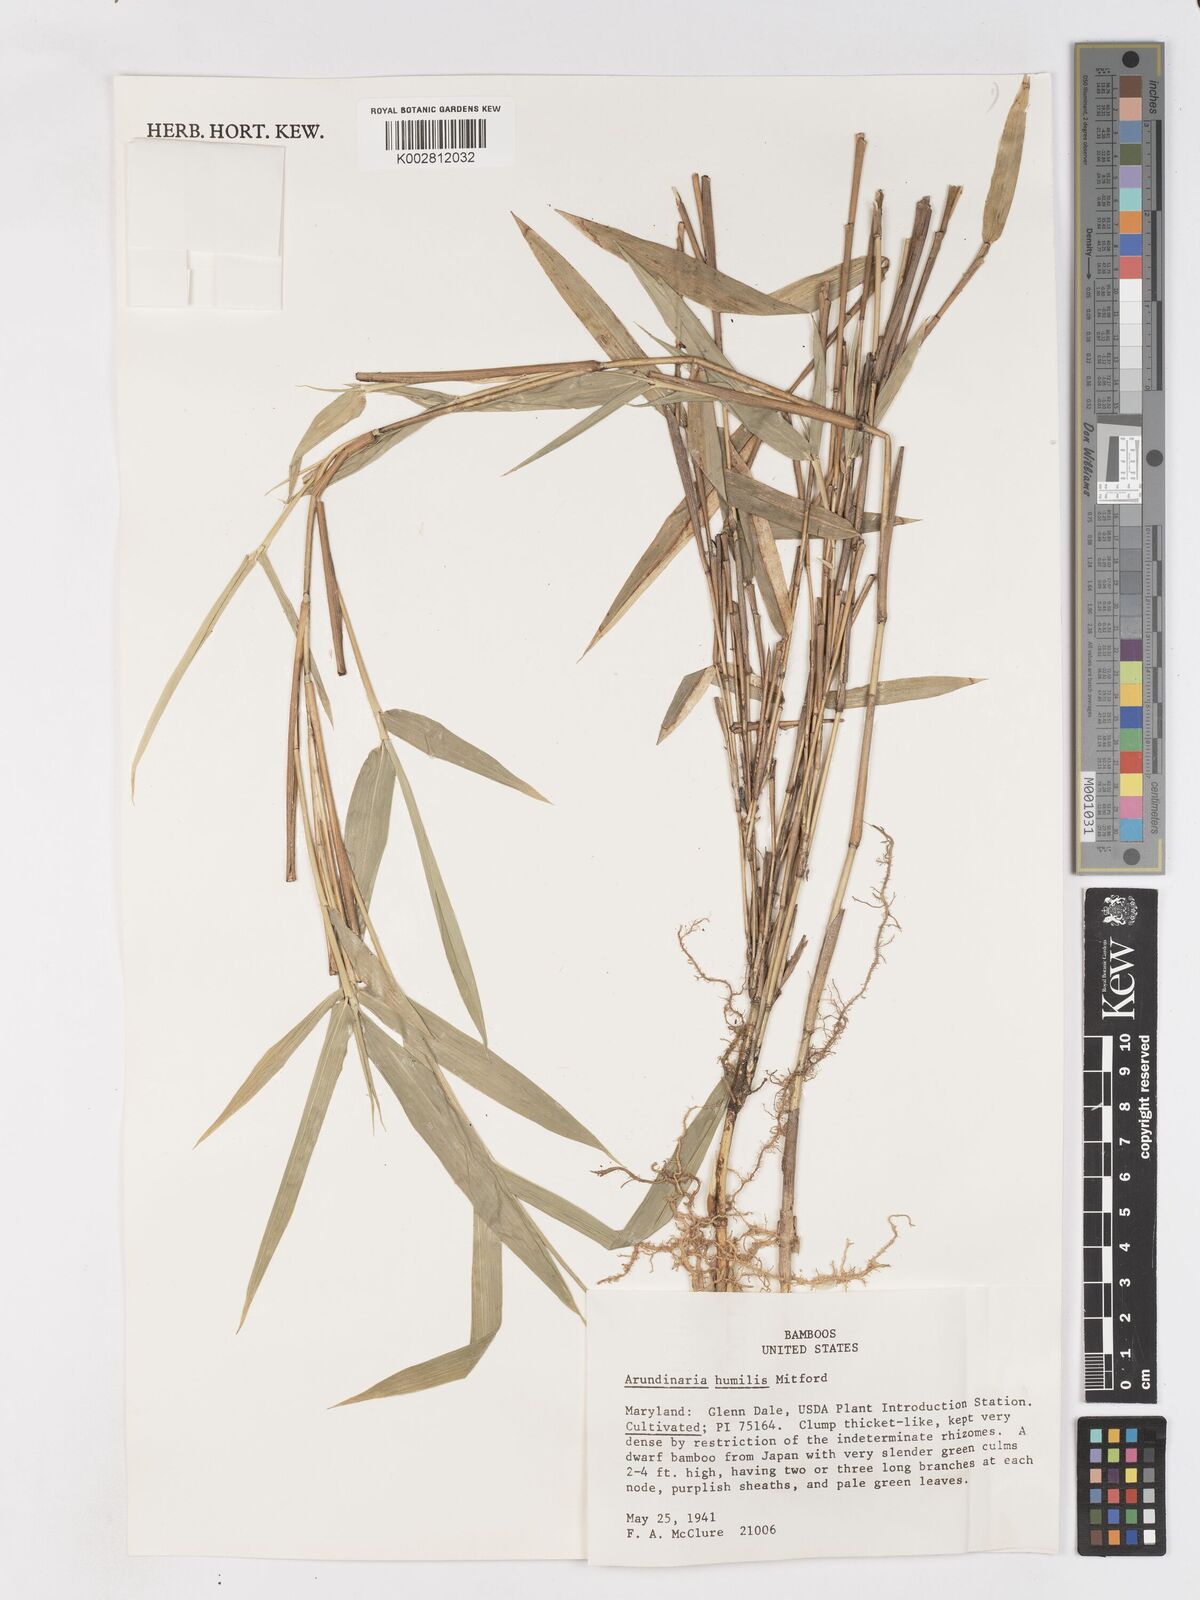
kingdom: Plantae
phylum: Tracheophyta
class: Liliopsida
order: Poales
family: Poaceae
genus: Pseudosasa
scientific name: Pseudosasa humilis
